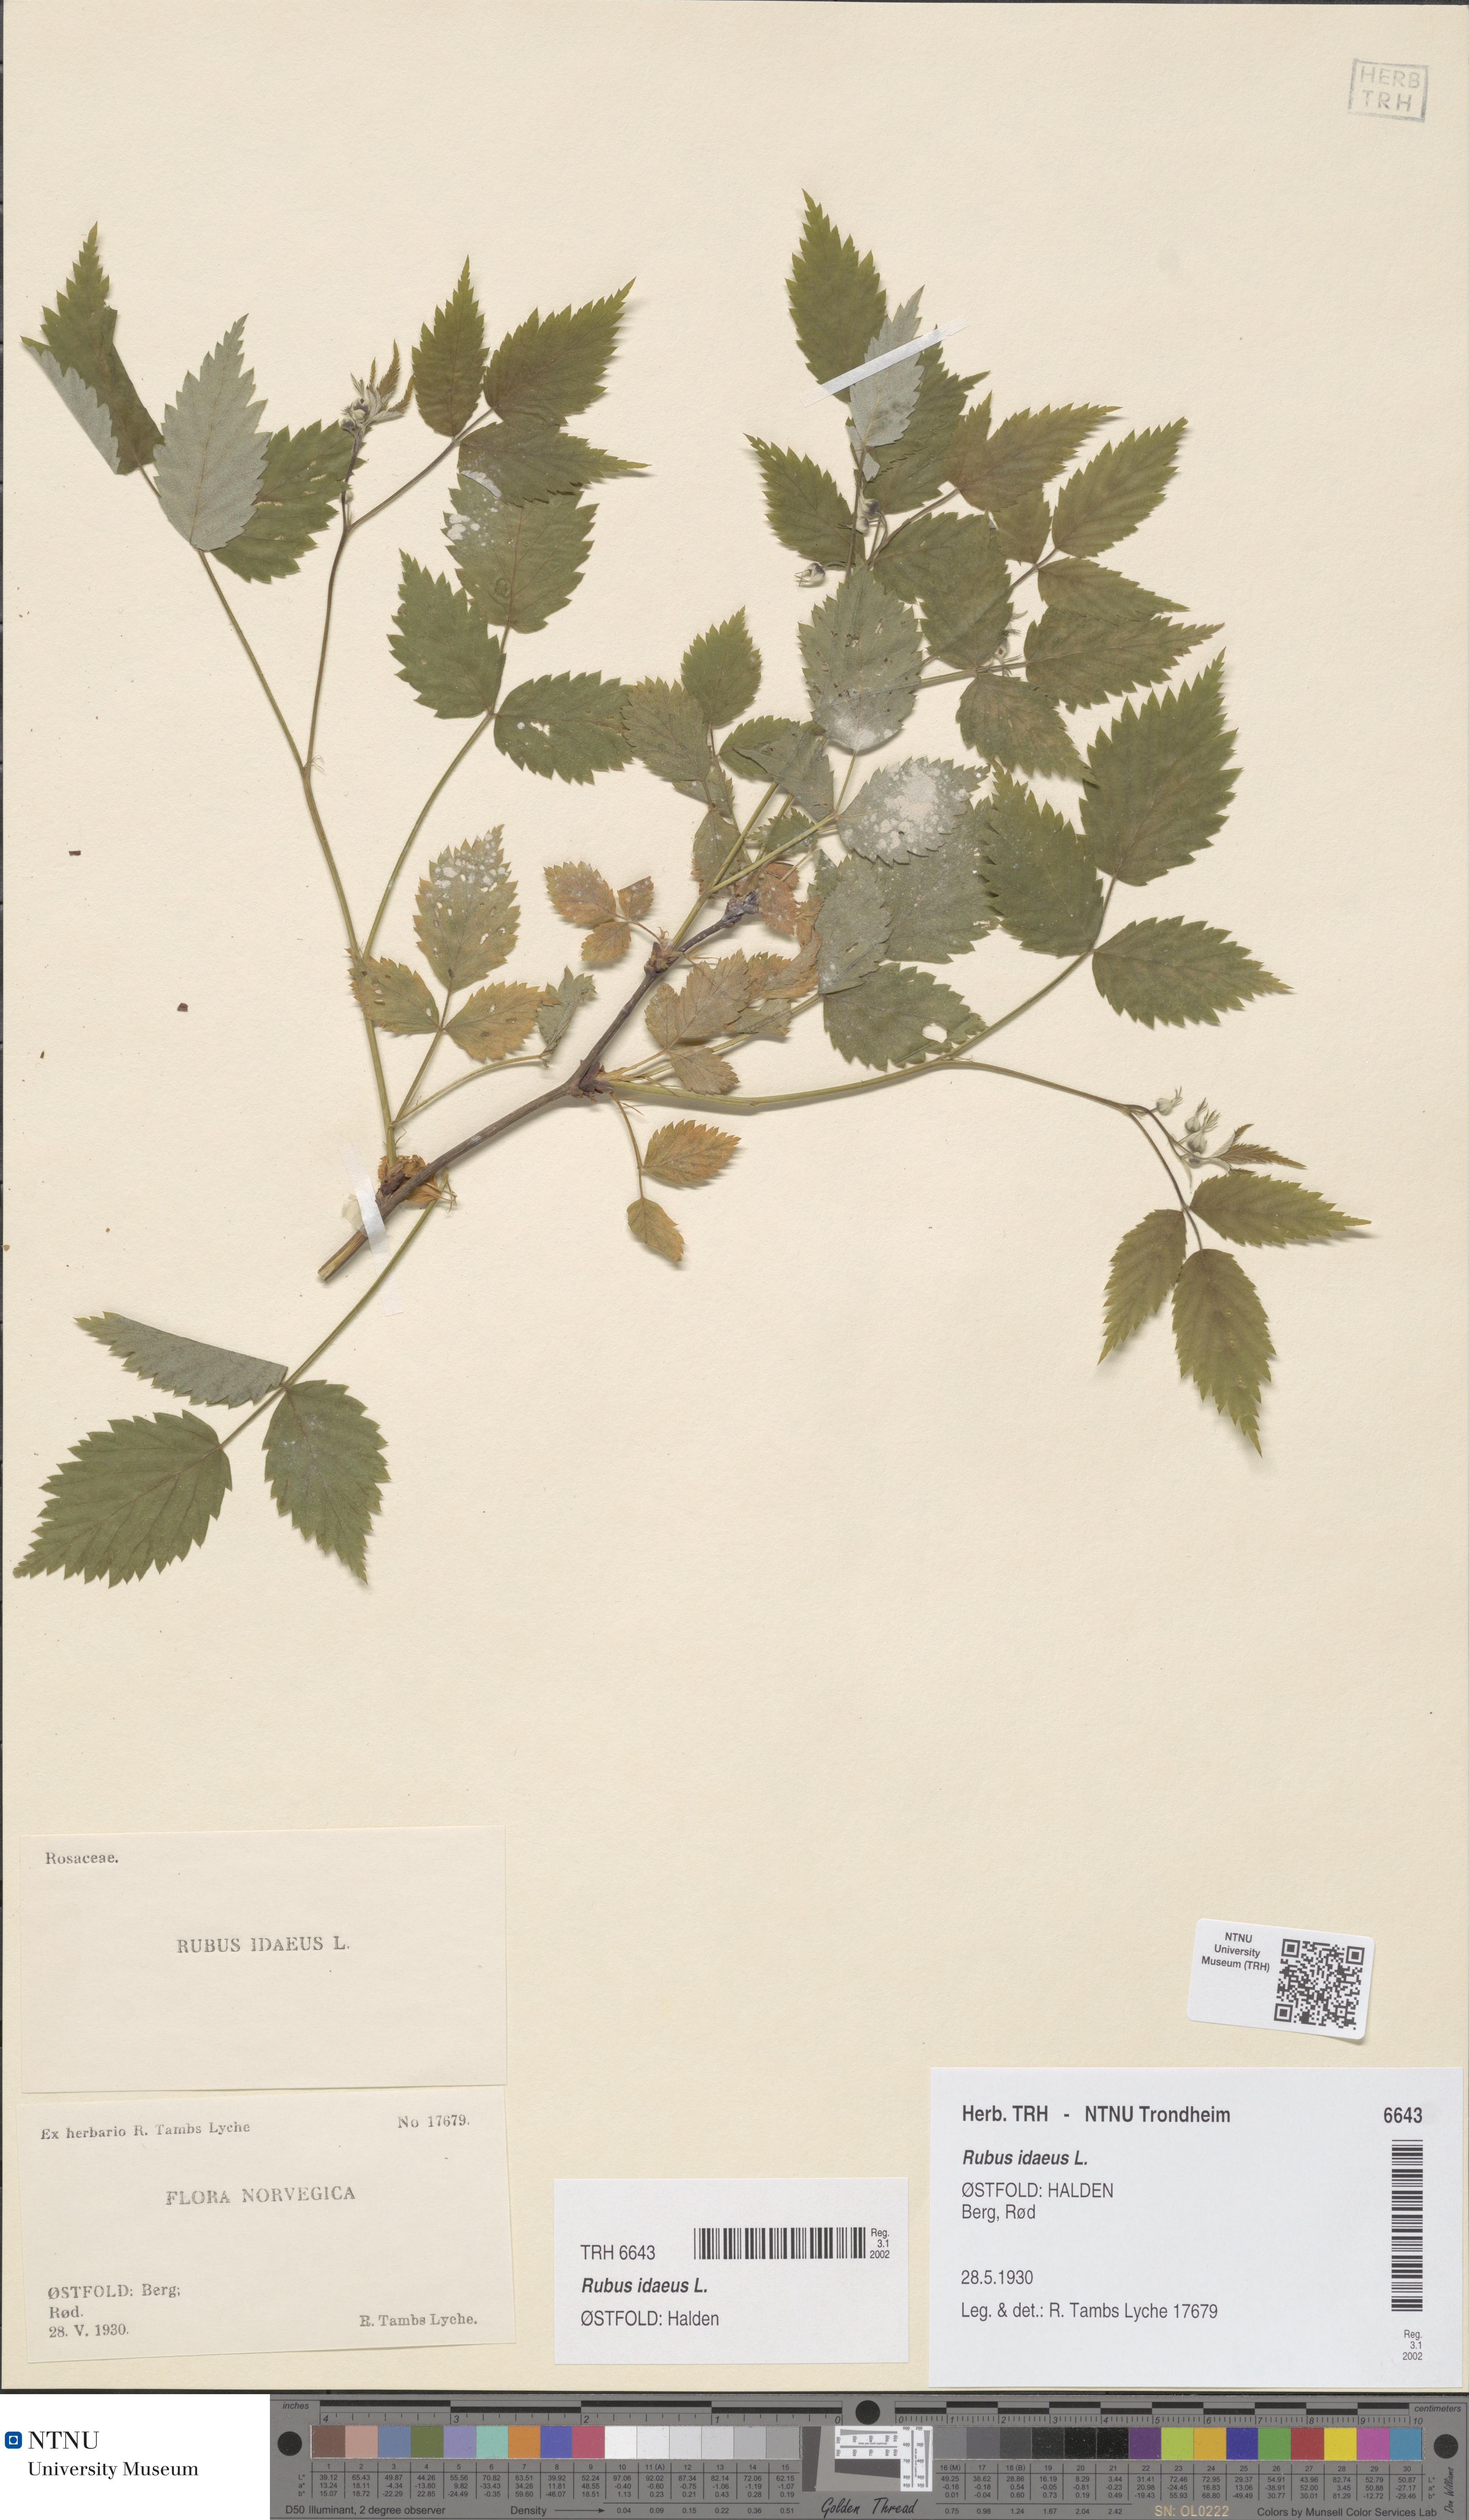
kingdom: Plantae
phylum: Tracheophyta
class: Magnoliopsida
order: Rosales
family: Rosaceae
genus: Rubus
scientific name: Rubus idaeus
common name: Raspberry
